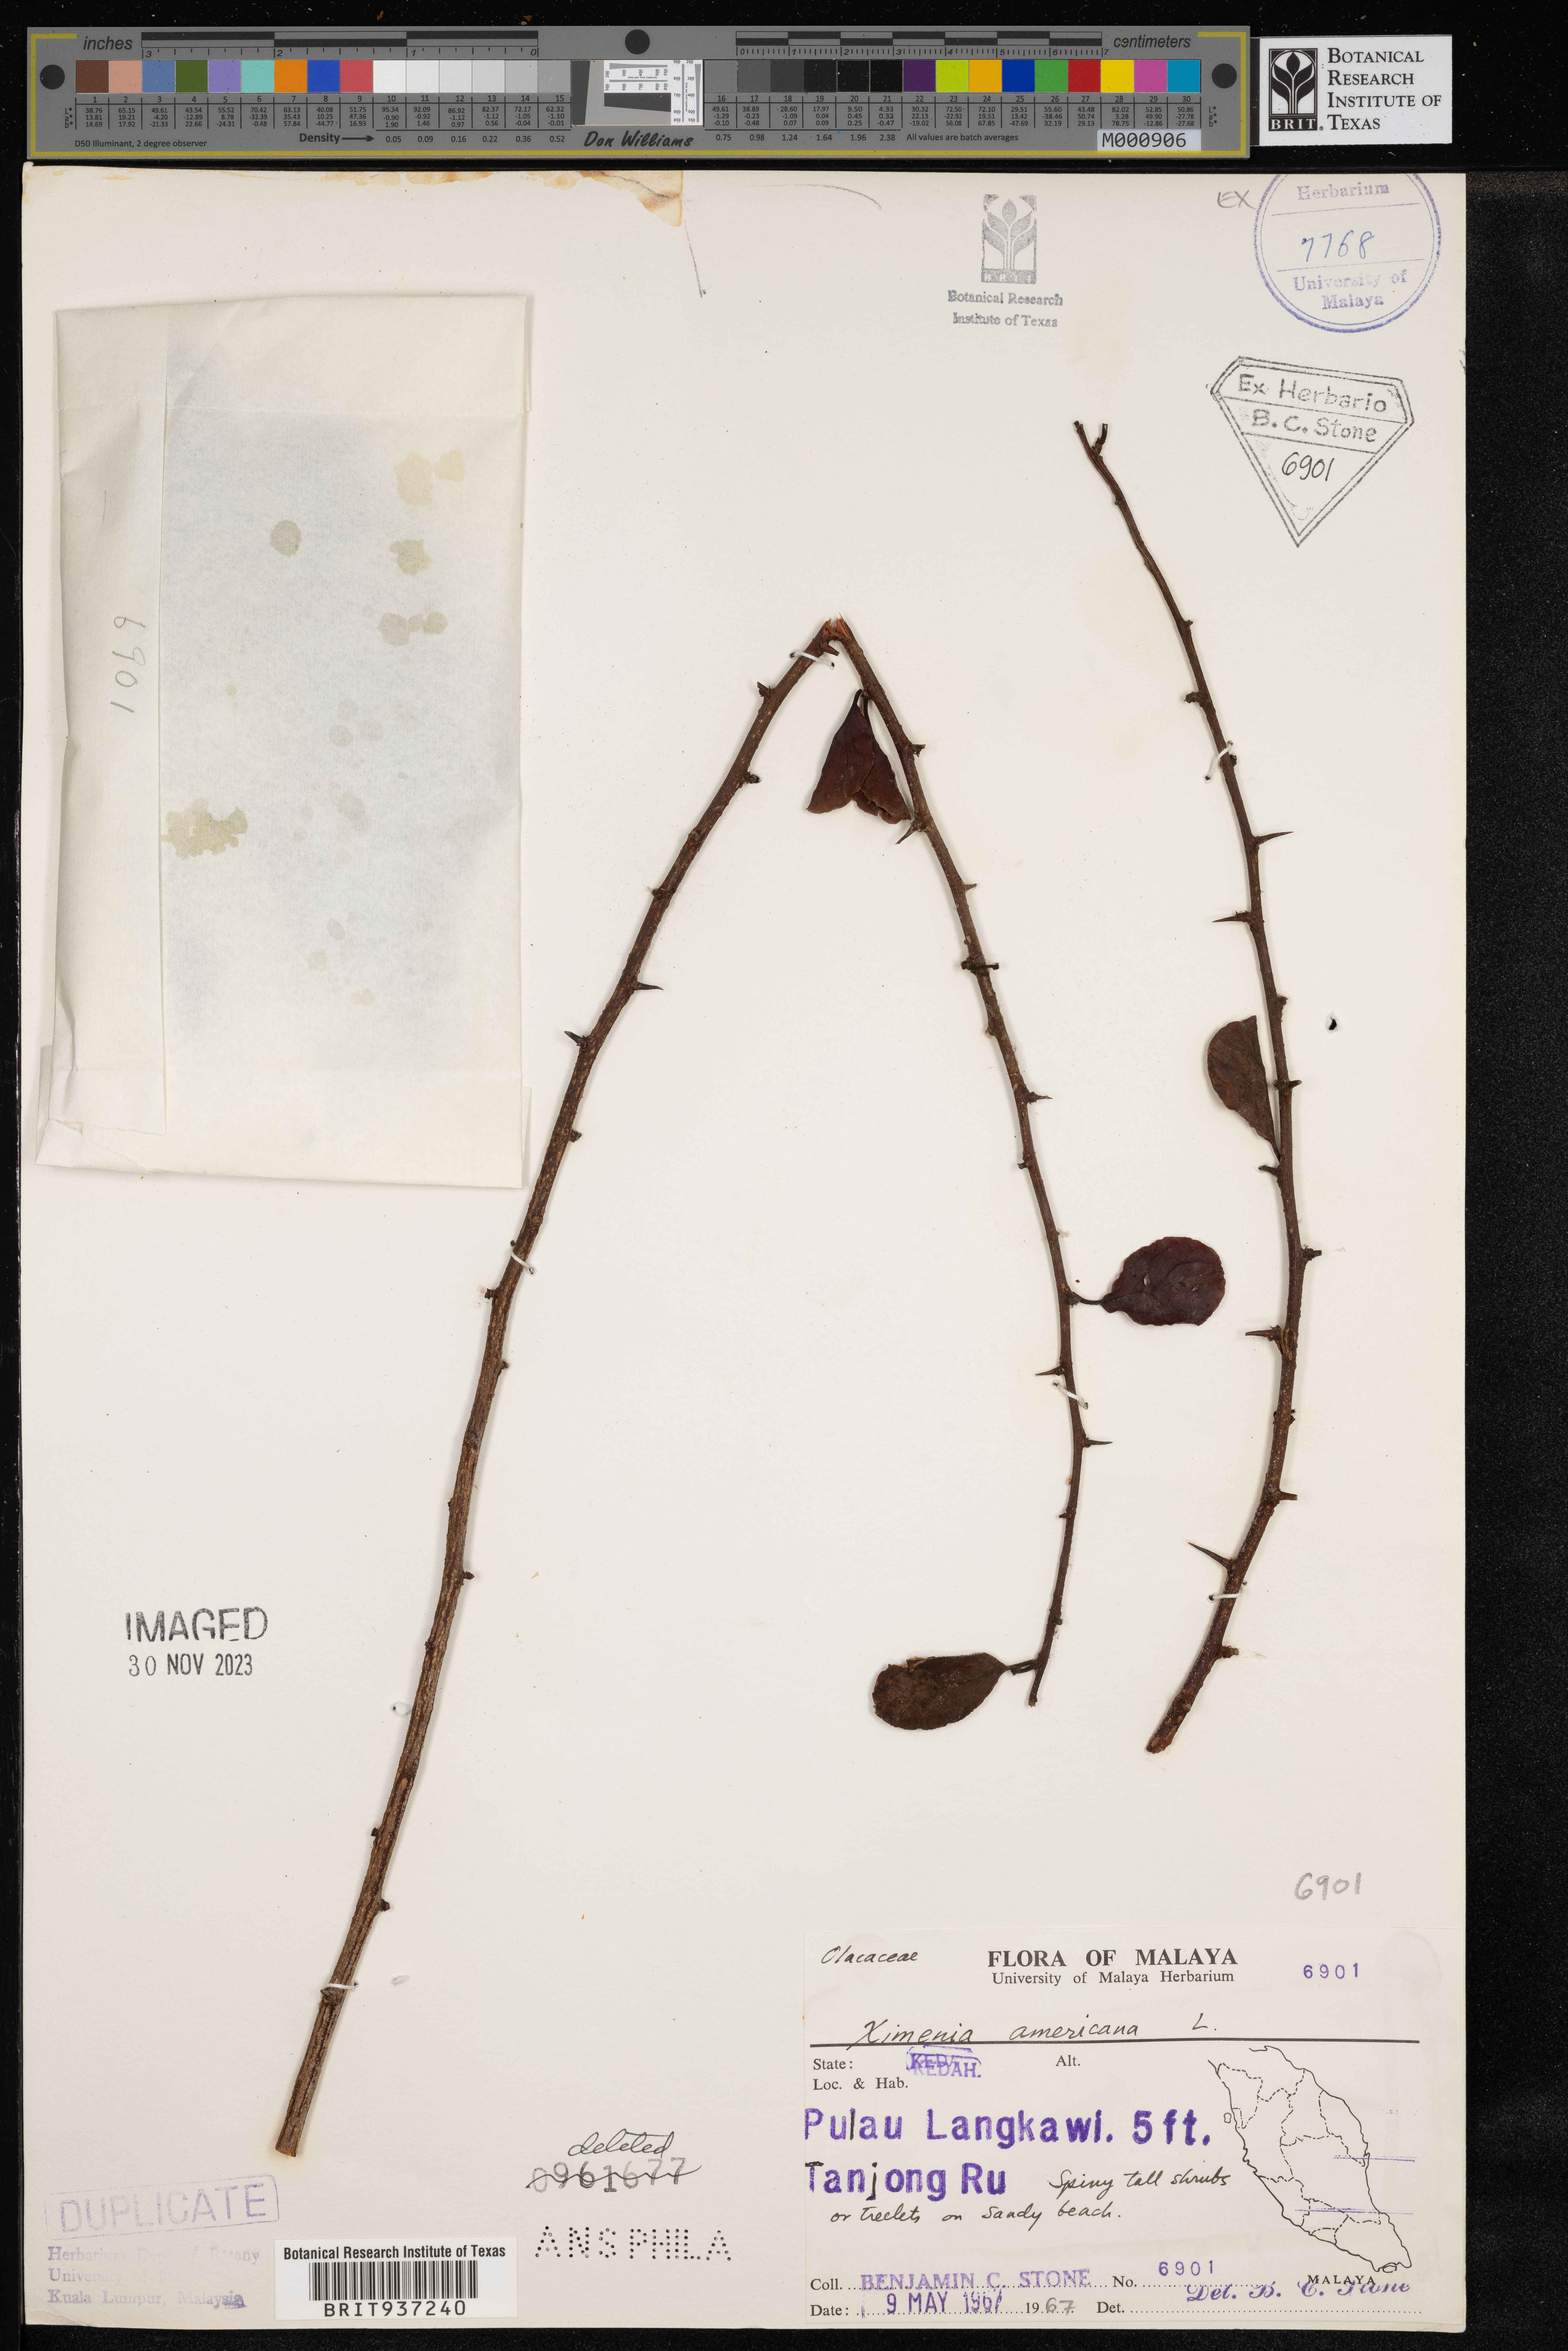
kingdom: Plantae
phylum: Tracheophyta
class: Magnoliopsida
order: Santalales
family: Ximeniaceae
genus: Ximenia
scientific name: Ximenia
